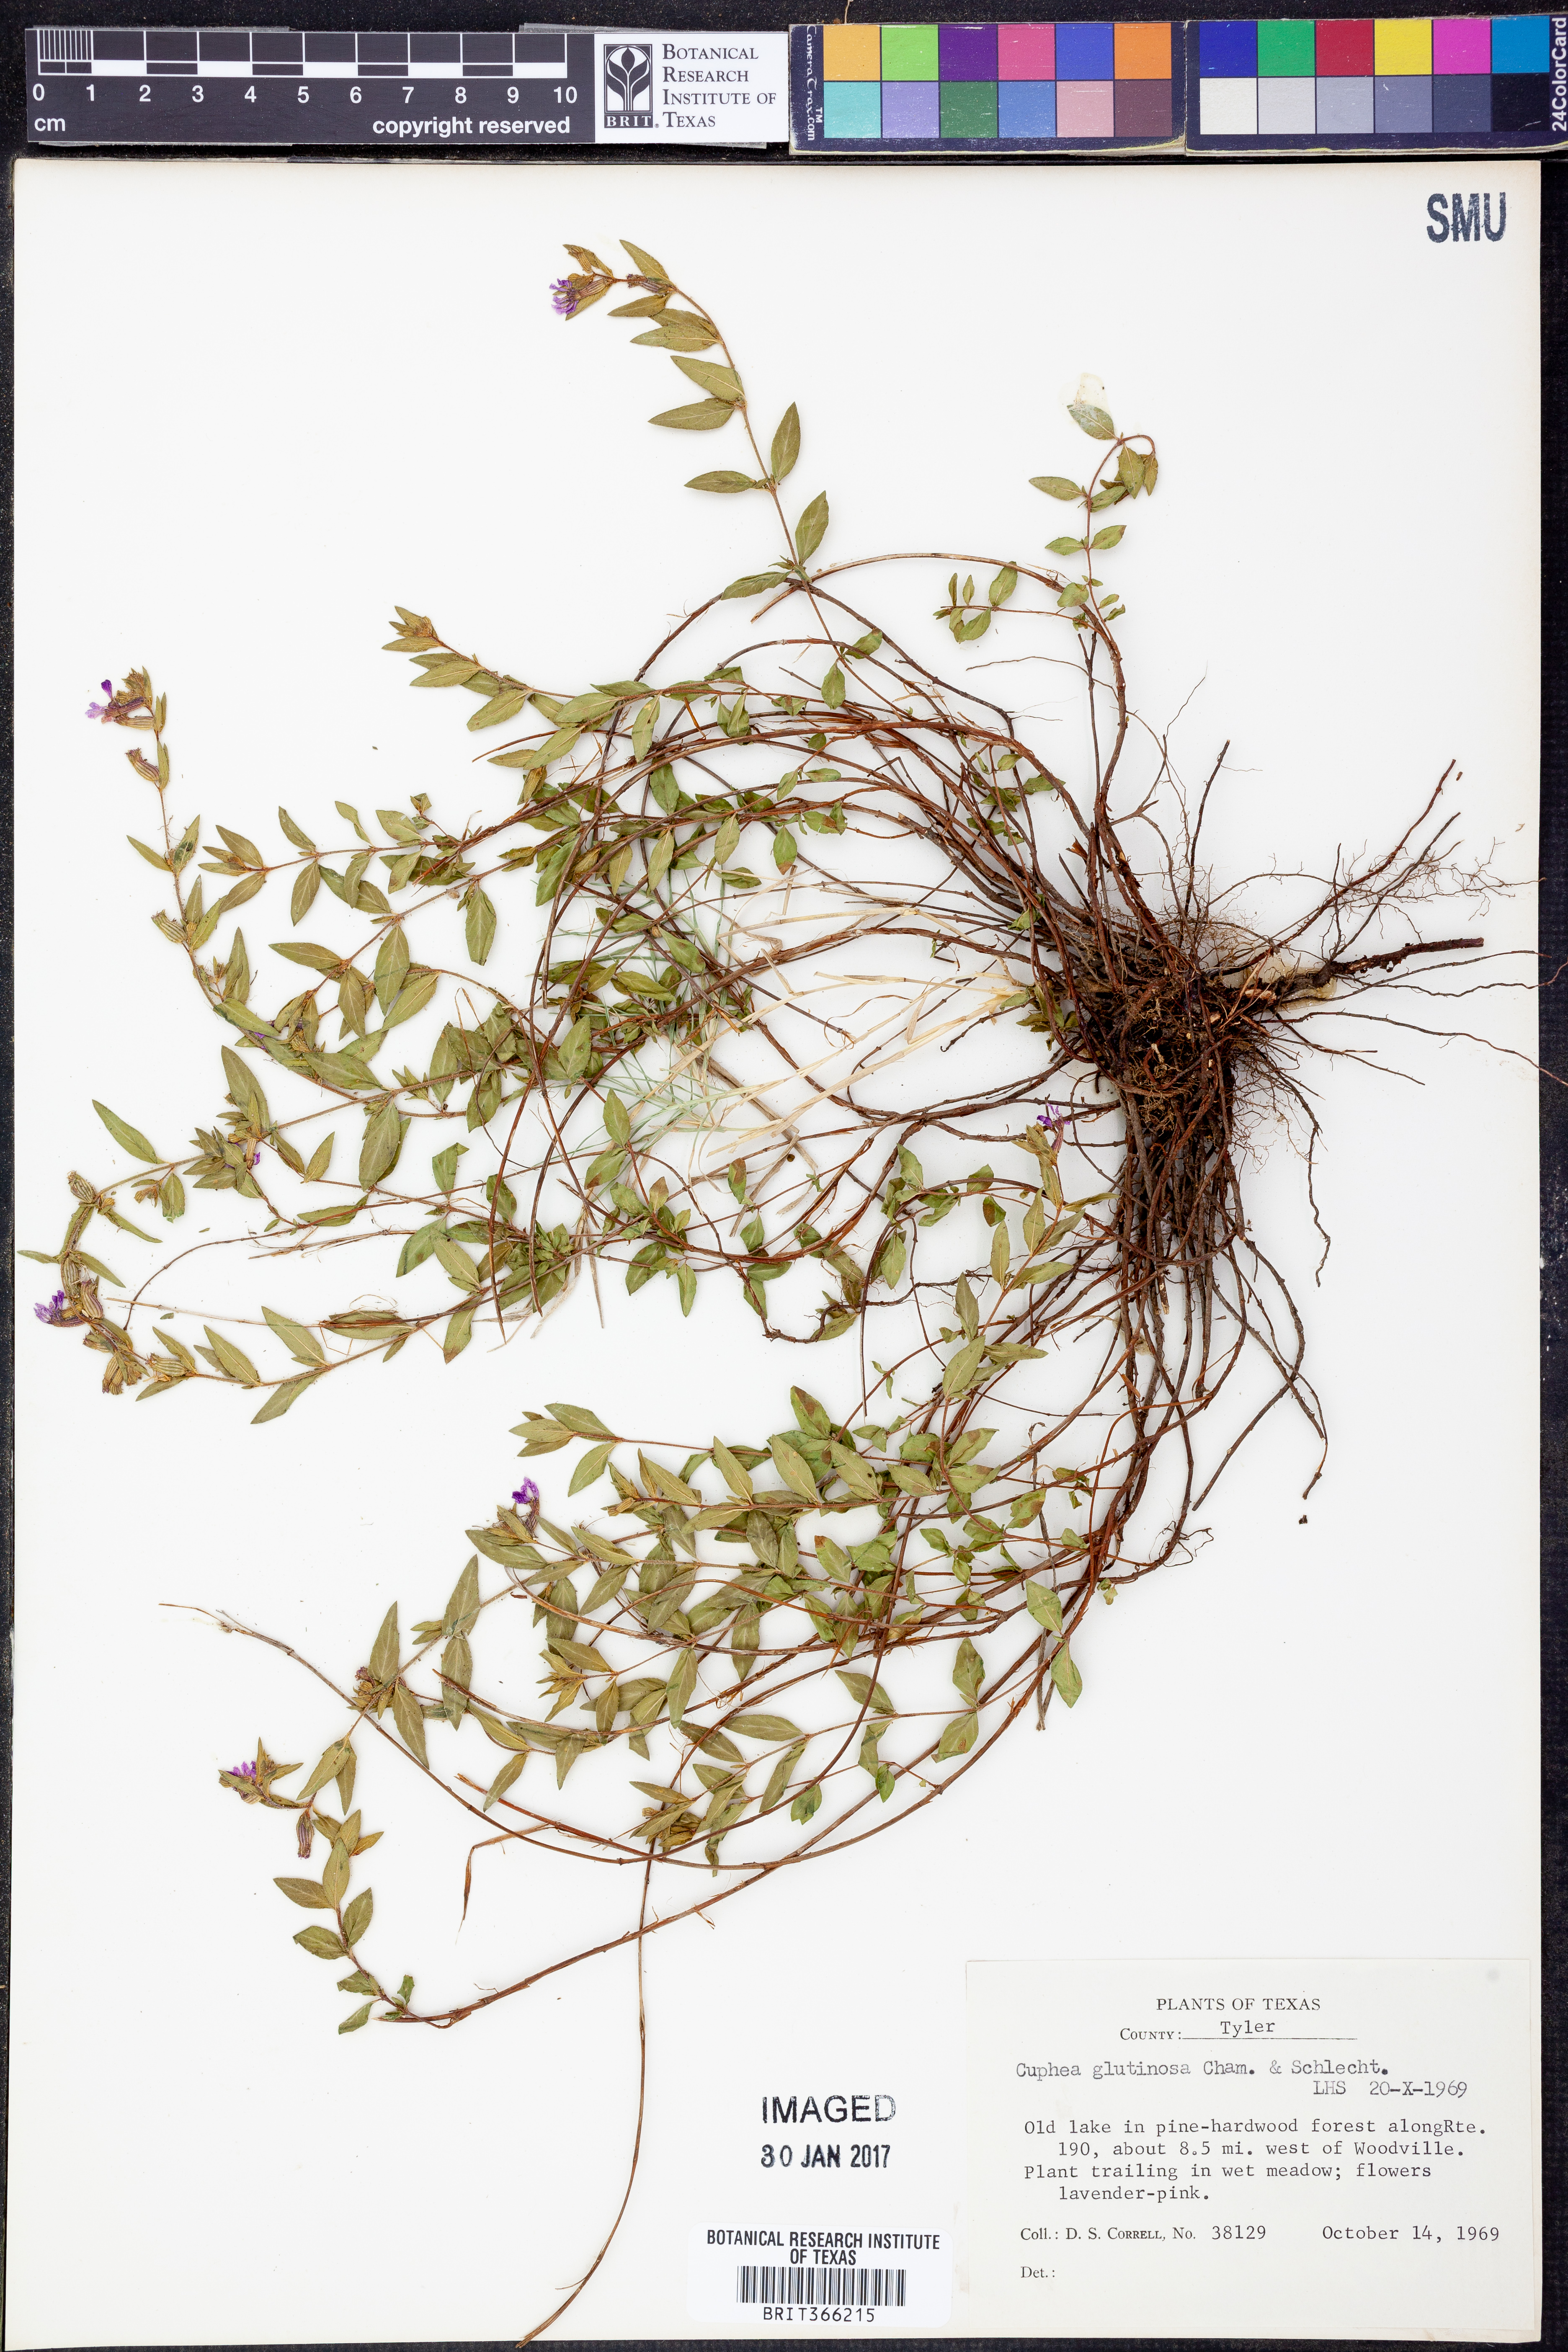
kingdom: Plantae
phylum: Tracheophyta
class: Magnoliopsida
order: Myrtales
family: Lythraceae
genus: Cuphea
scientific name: Cuphea glutinosa
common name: Sticky waxweed
